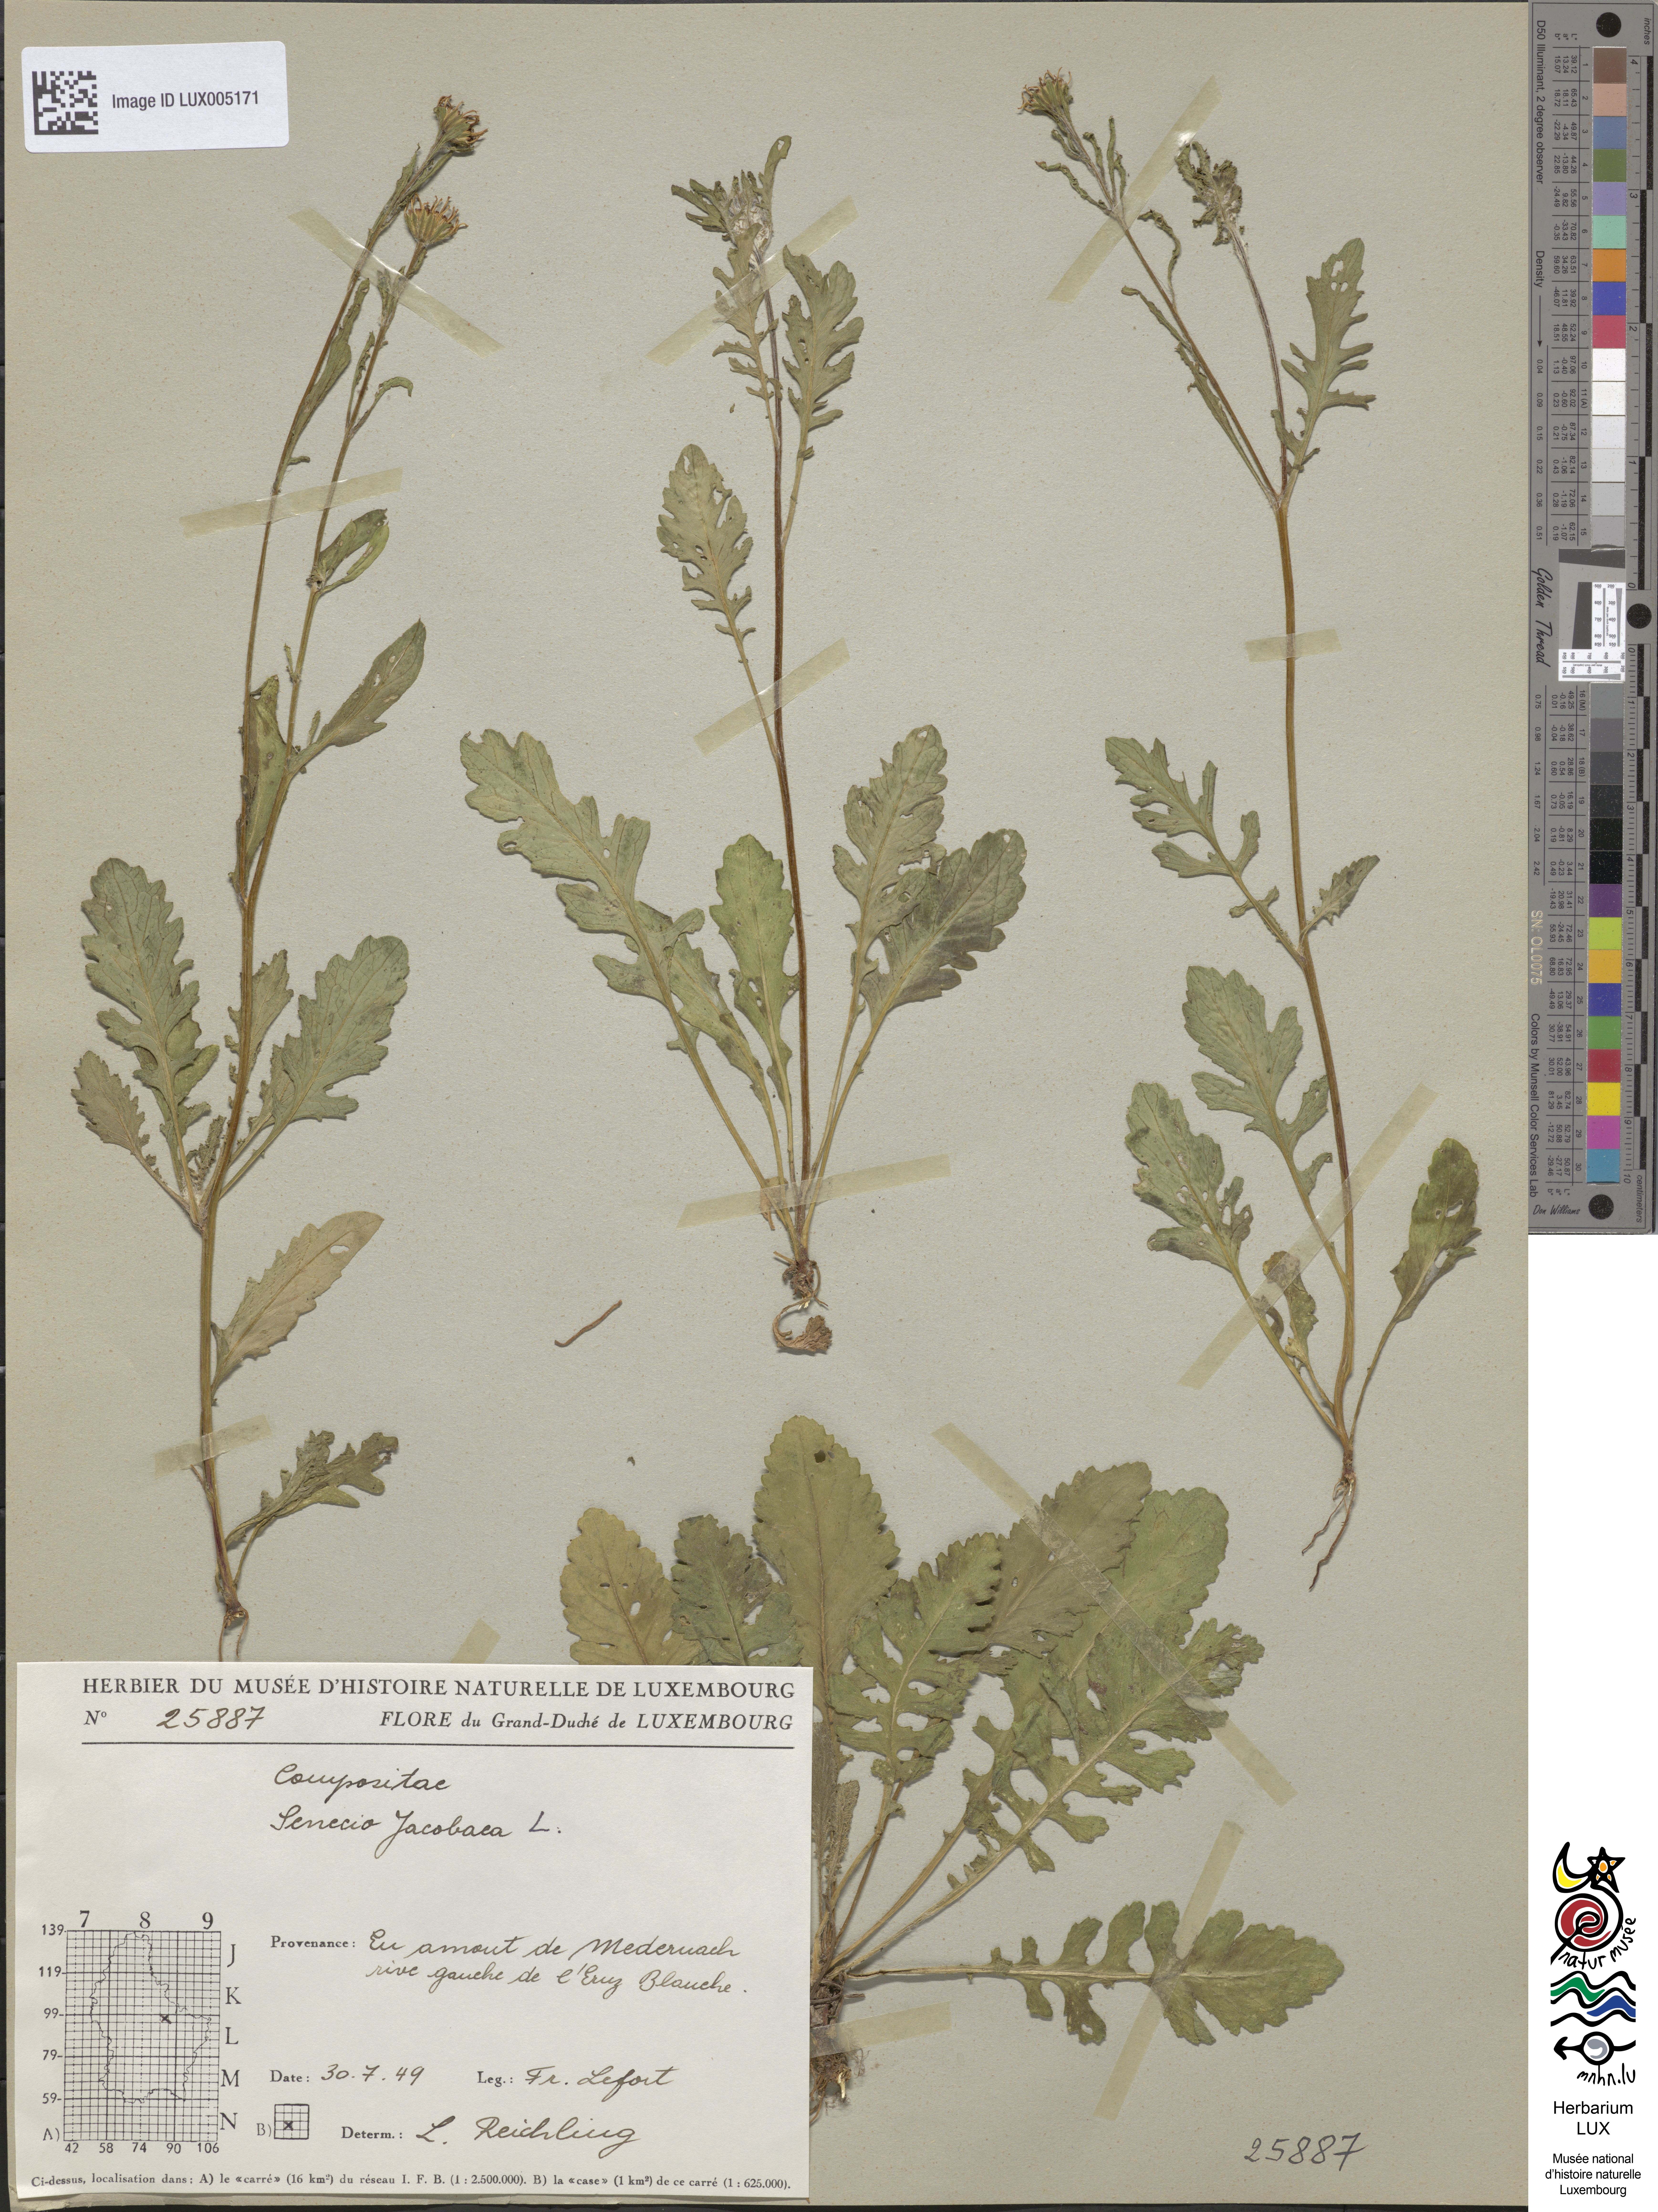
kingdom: Plantae
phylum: Tracheophyta
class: Magnoliopsida
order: Asterales
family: Asteraceae
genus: Jacobaea
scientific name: Jacobaea vulgaris
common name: Stinking willie
